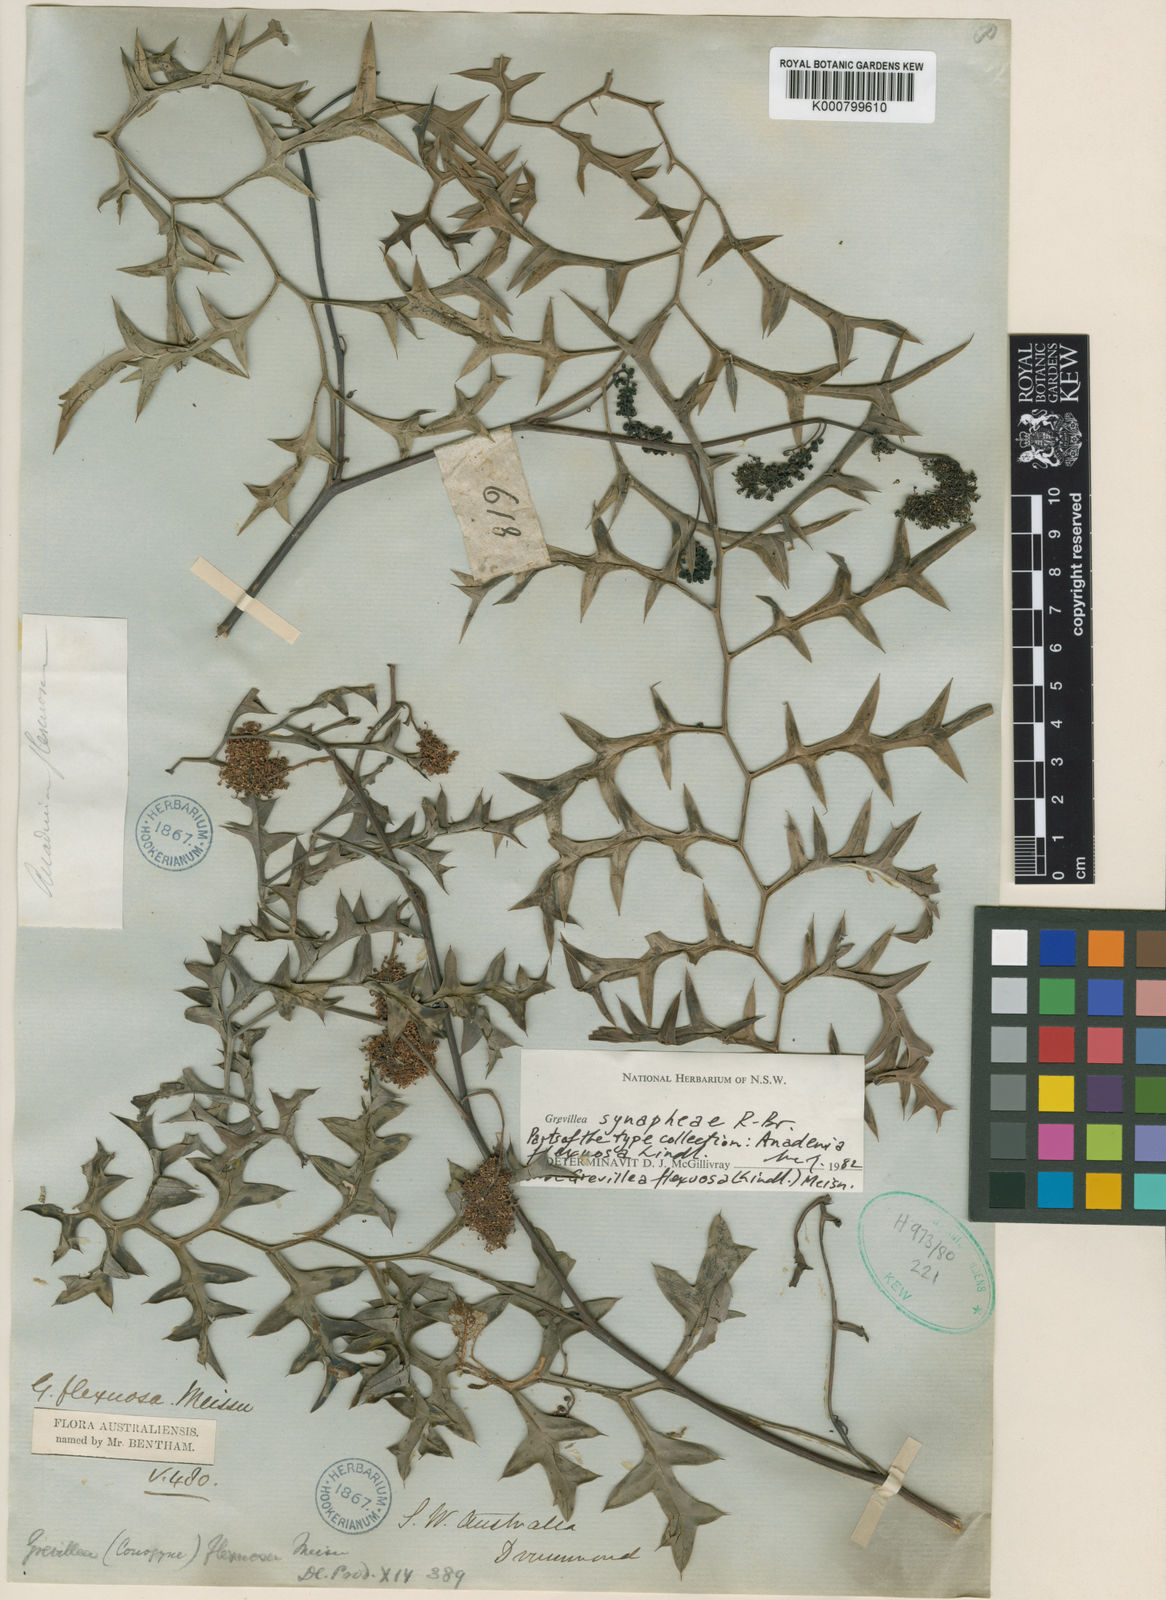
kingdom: Plantae
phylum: Tracheophyta
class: Magnoliopsida
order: Proteales
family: Proteaceae
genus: Grevillea
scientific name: Grevillea synaphea
